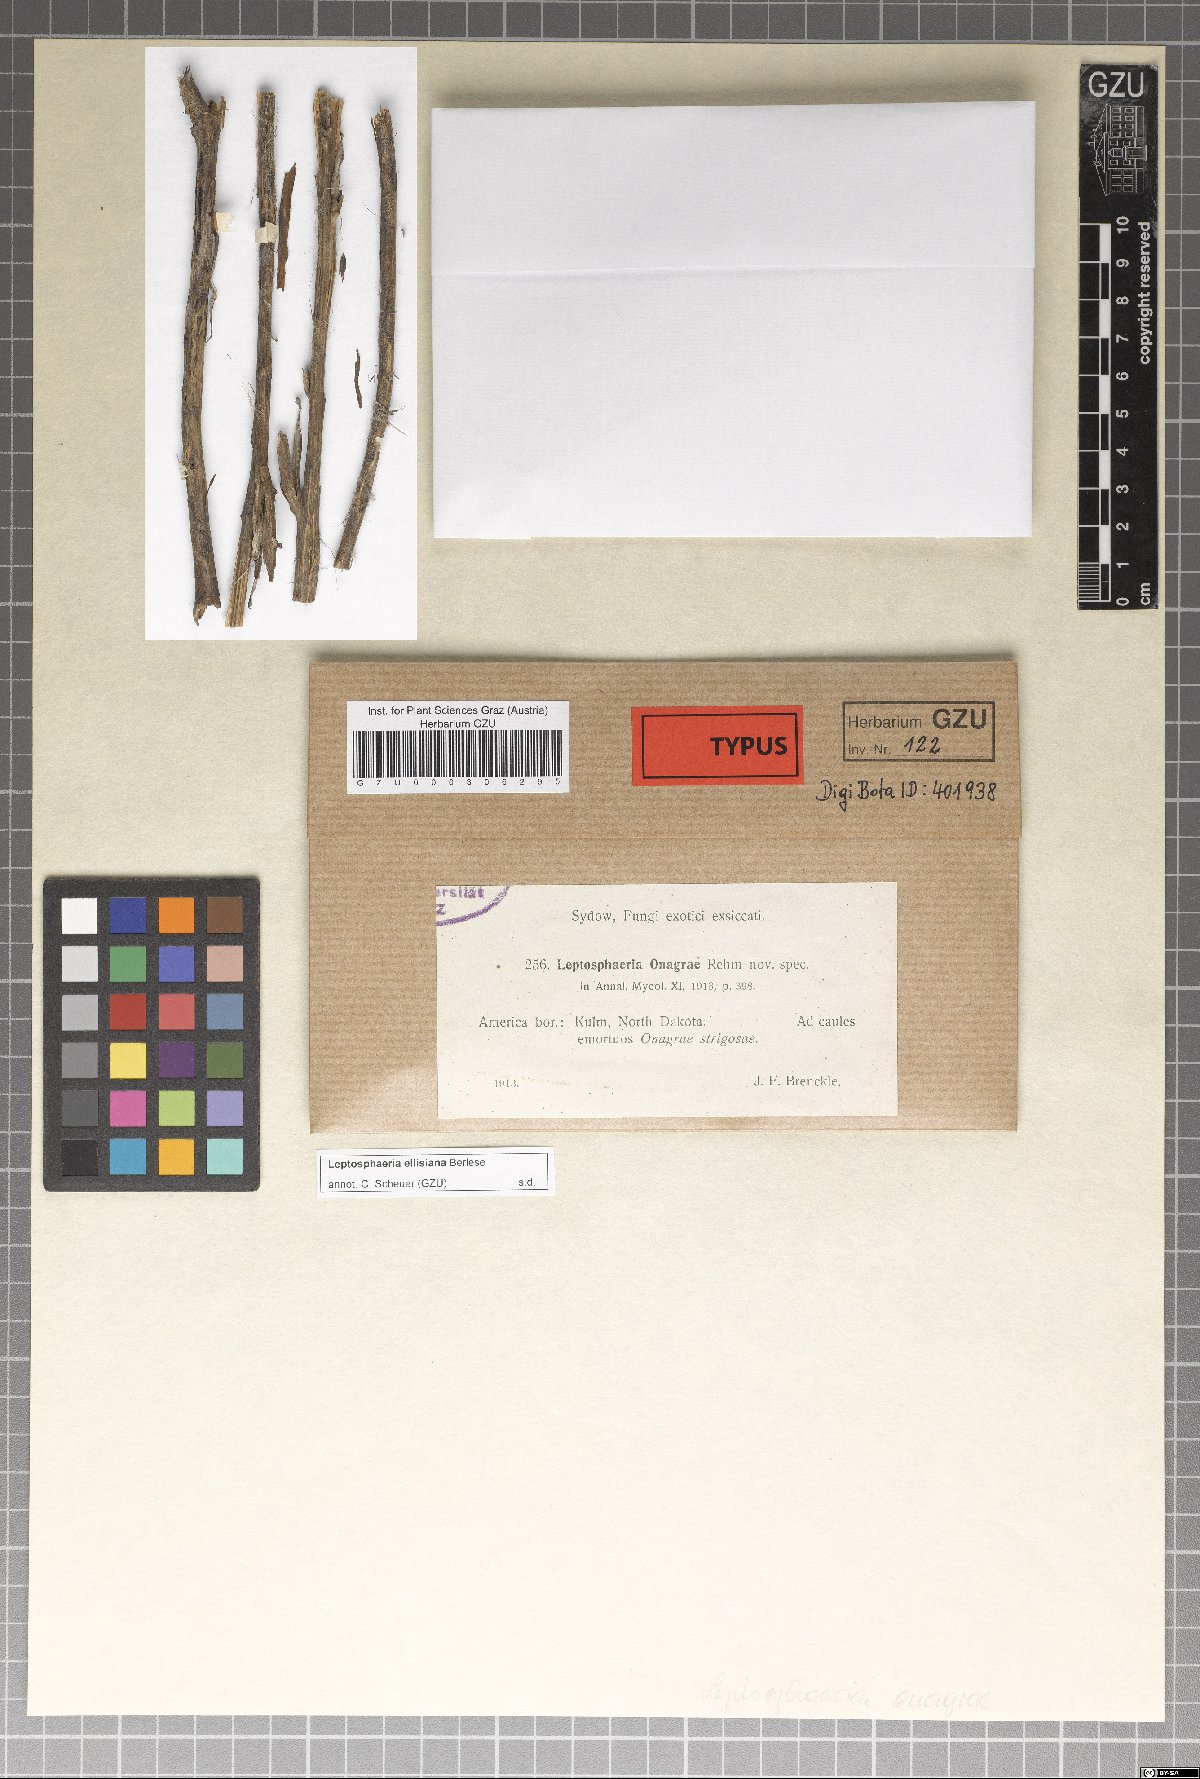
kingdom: Fungi
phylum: Ascomycota
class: Dothideomycetes
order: Pleosporales
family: Leptosphaeriaceae
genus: Leptosphaeria
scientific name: Leptosphaeria onagrae
